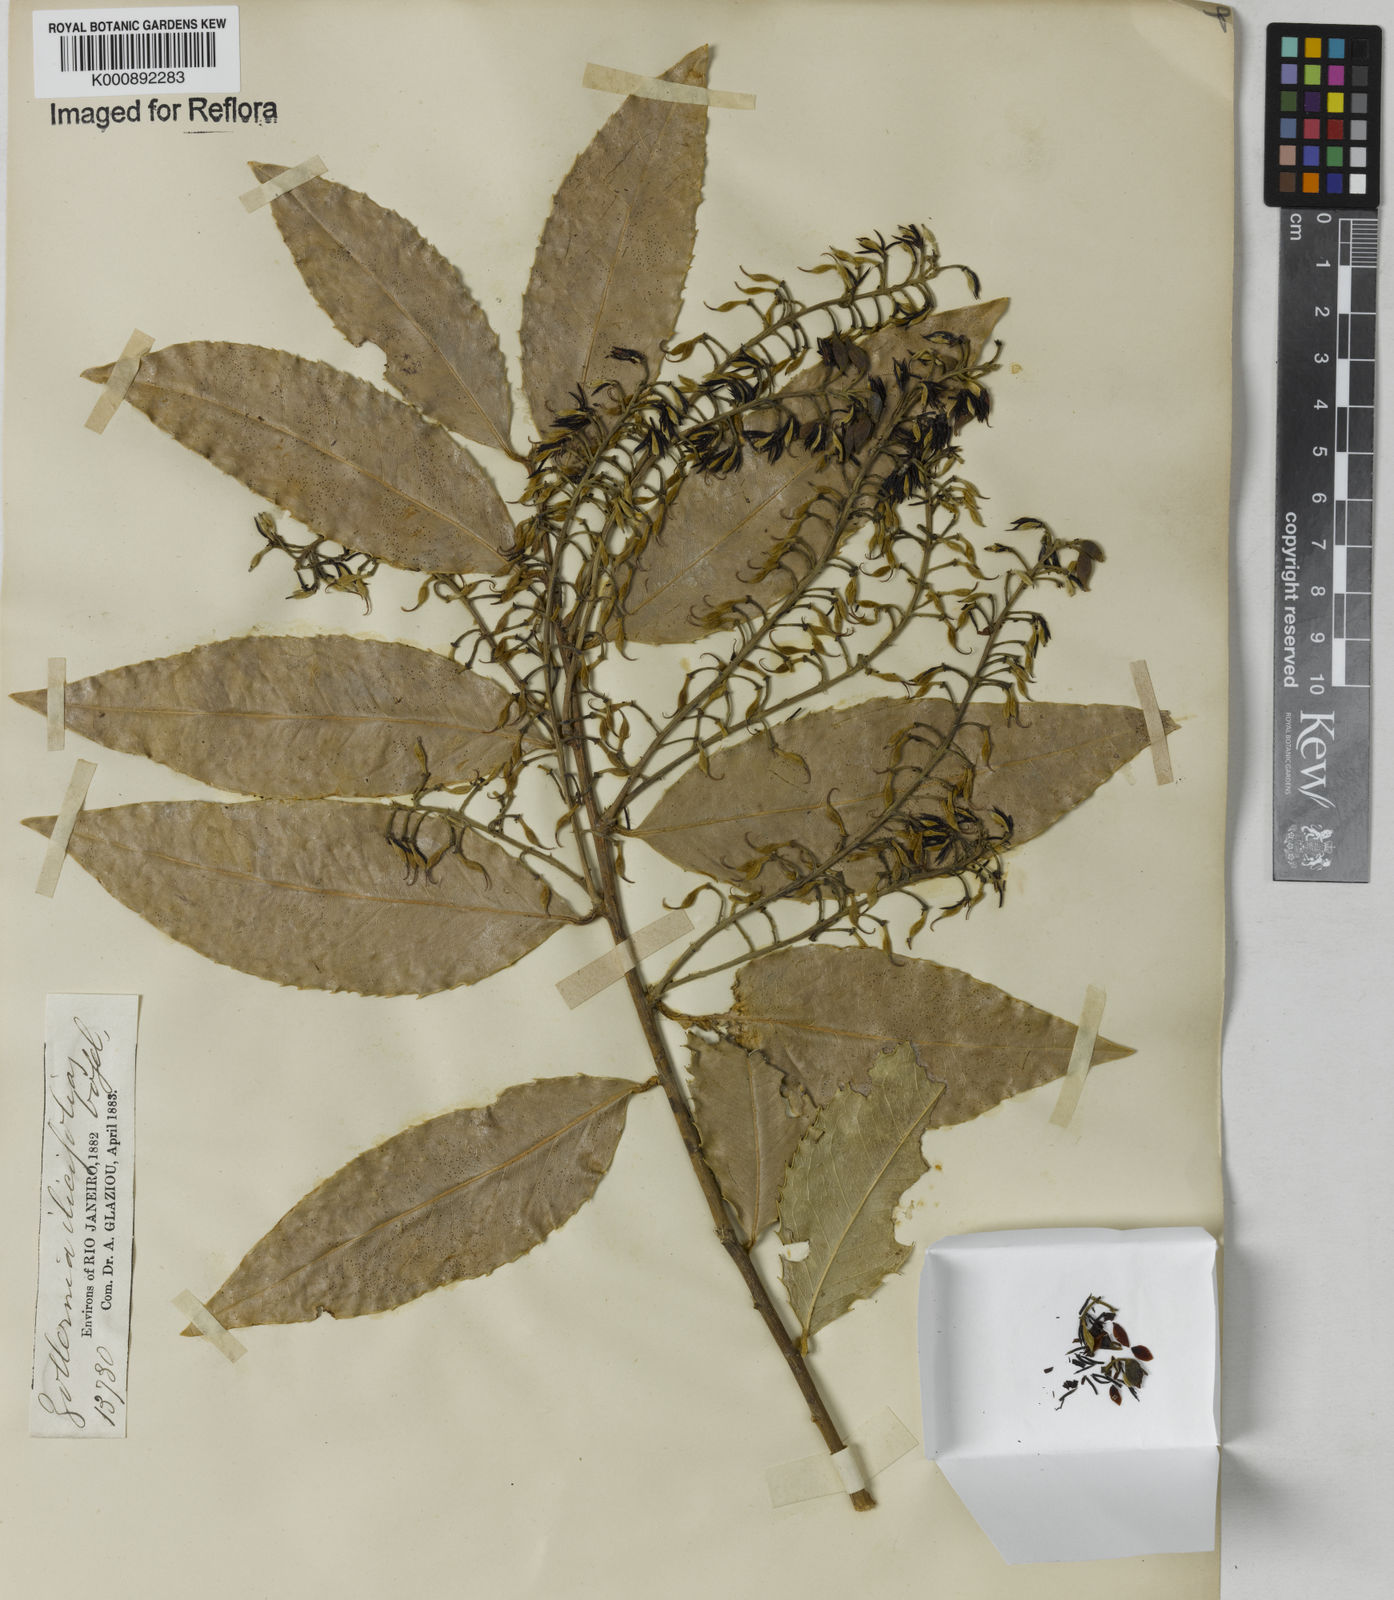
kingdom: Plantae
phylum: Tracheophyta
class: Magnoliopsida
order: Fabales
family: Fabaceae
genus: Zollernia
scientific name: Zollernia ilicifolia
